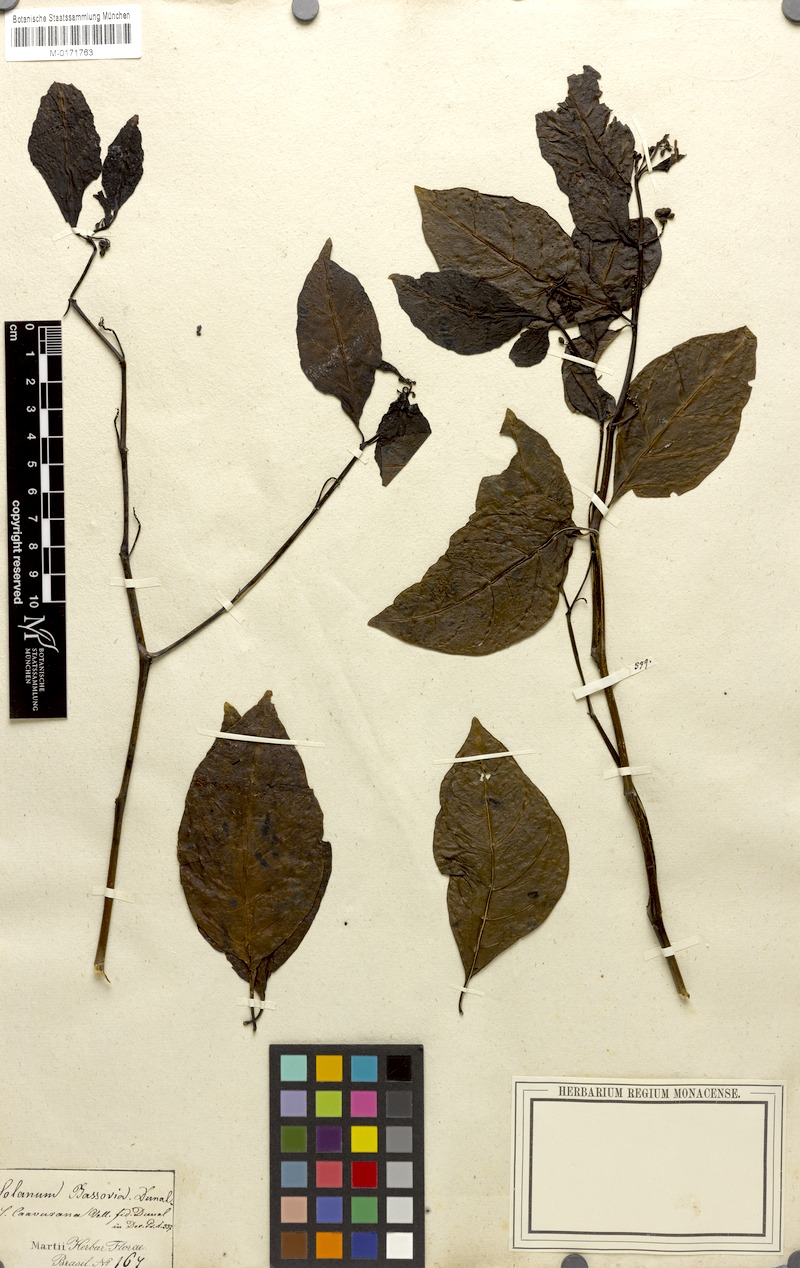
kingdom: Plantae
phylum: Tracheophyta
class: Magnoliopsida
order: Solanales
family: Solanaceae
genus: Solanum
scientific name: Solanum caavurana
